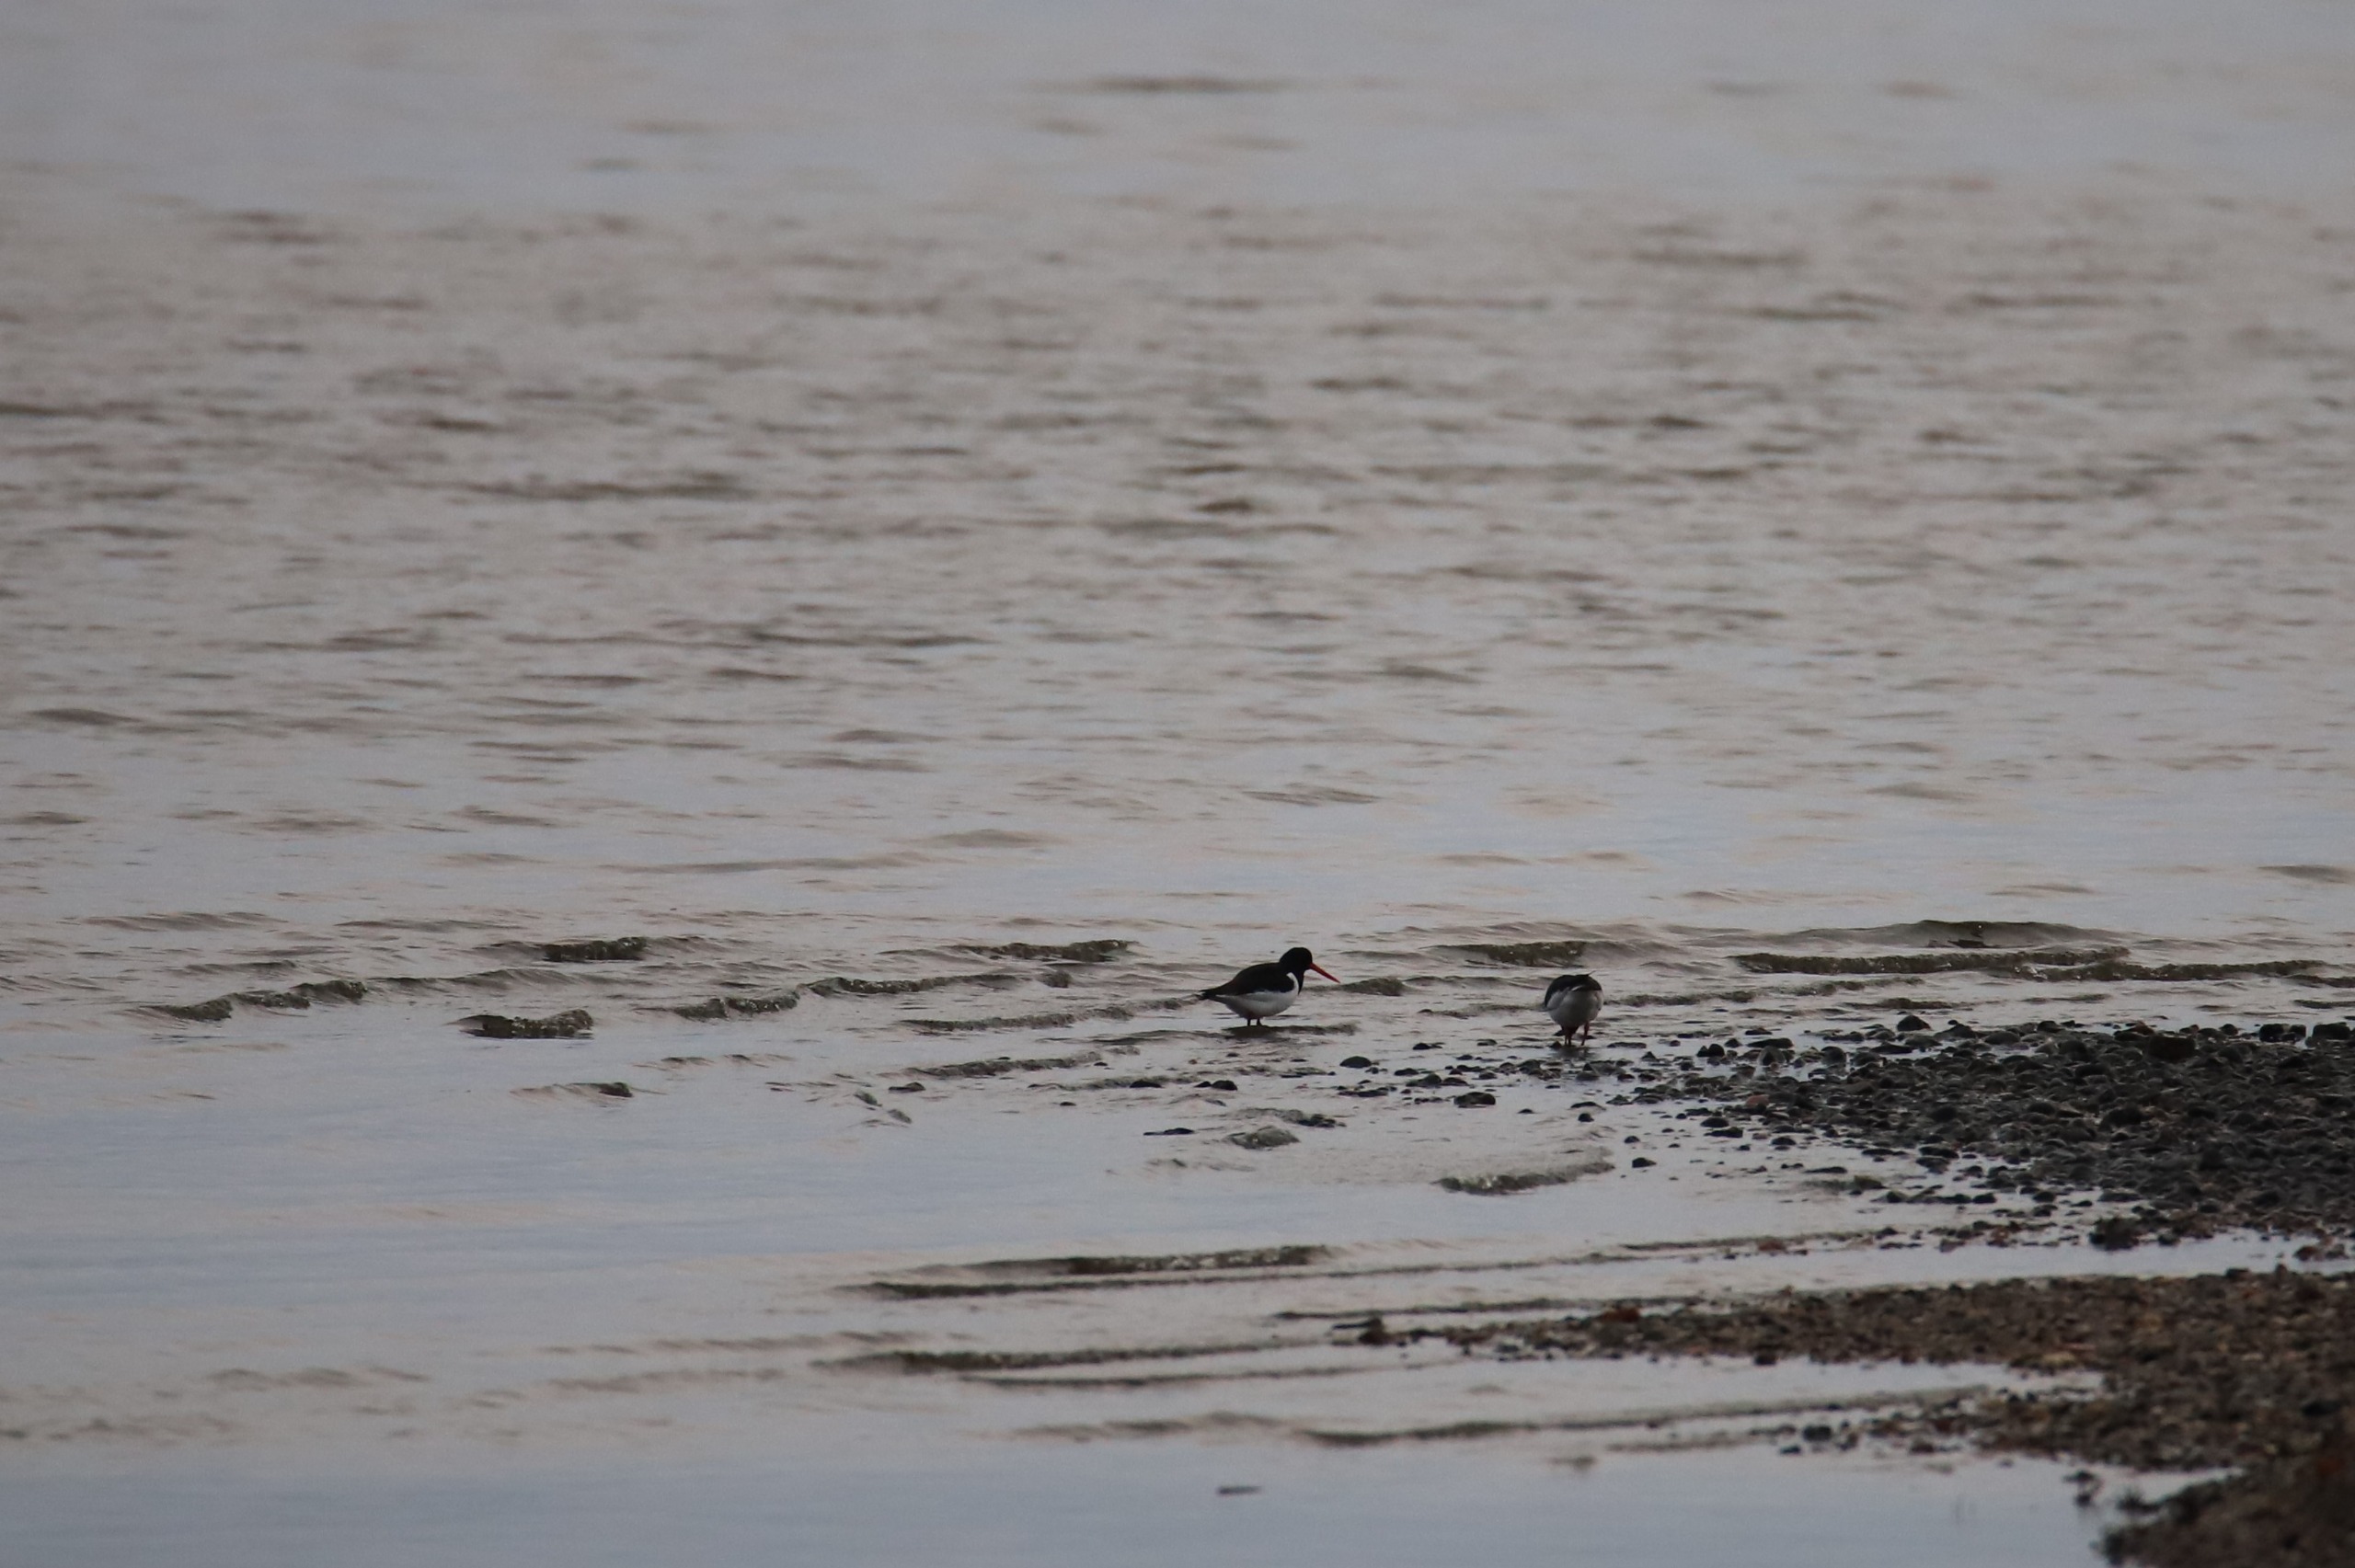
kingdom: Animalia
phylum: Chordata
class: Aves
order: Charadriiformes
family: Haematopodidae
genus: Haematopus
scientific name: Haematopus ostralegus
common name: Strandskade
